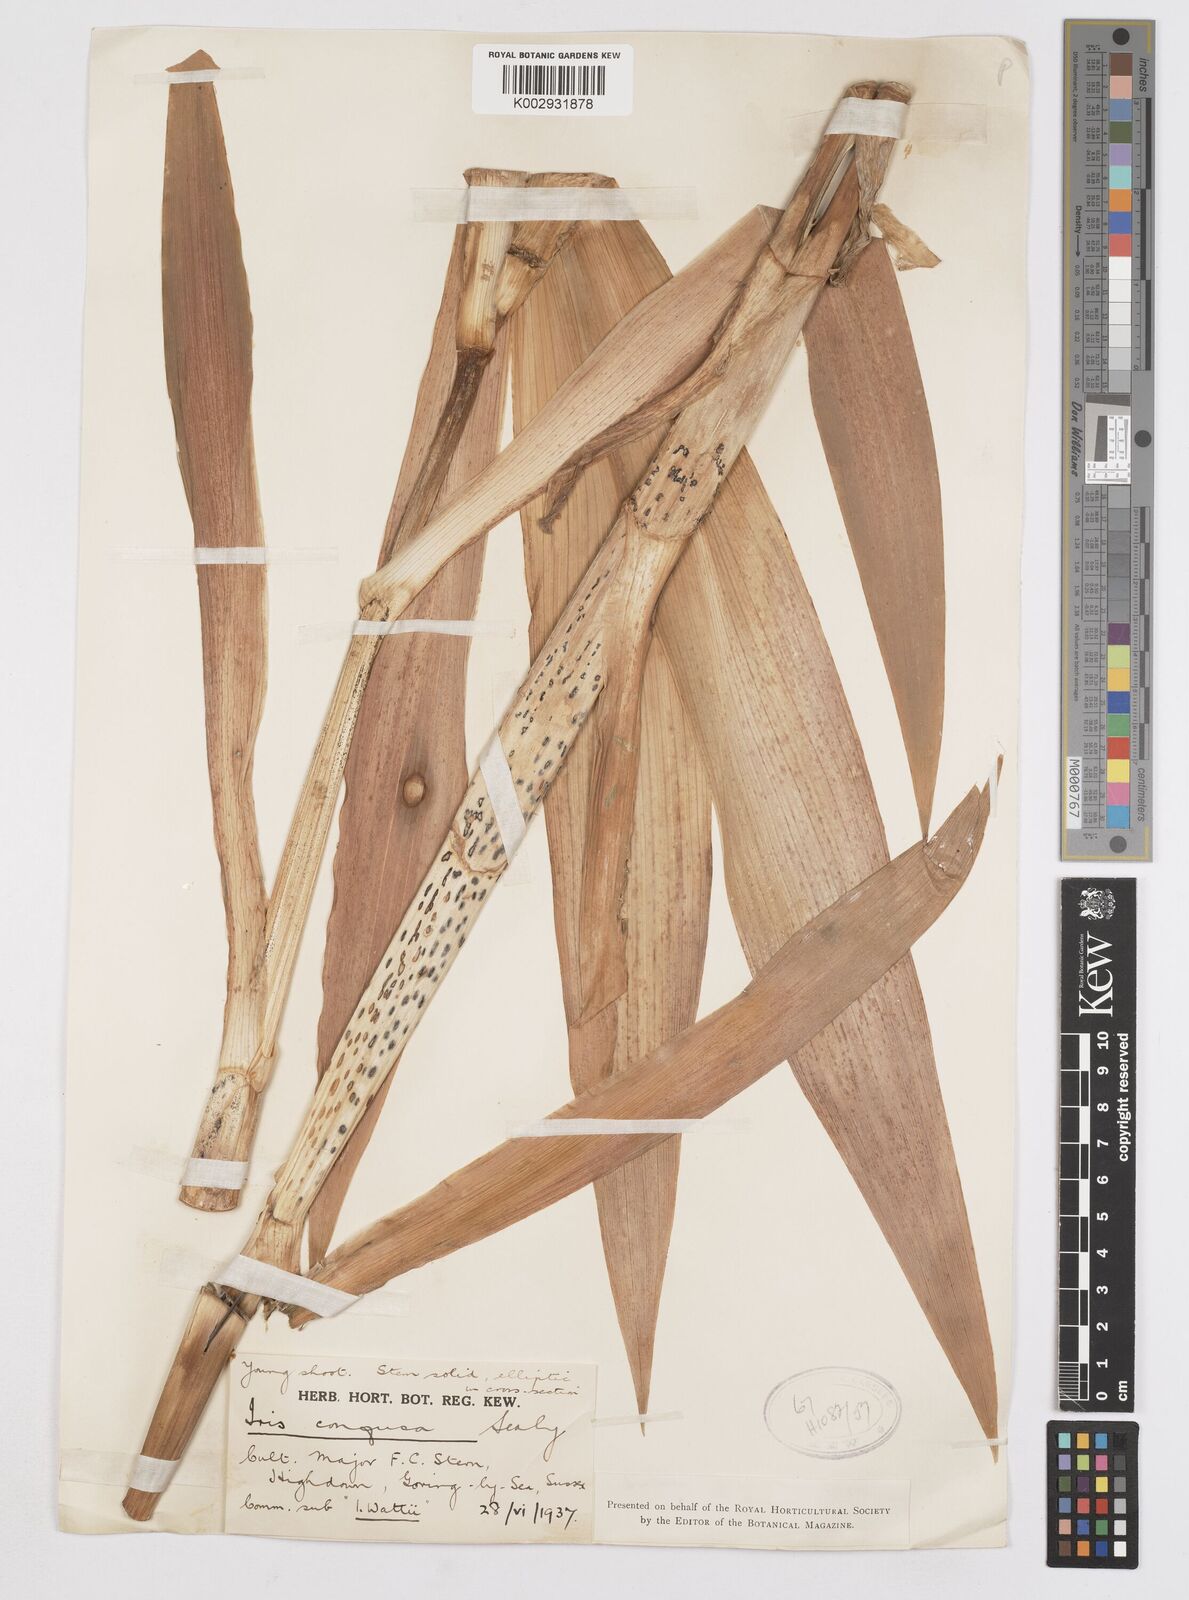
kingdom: Plantae
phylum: Tracheophyta
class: Liliopsida
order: Asparagales
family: Iridaceae
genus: Iris
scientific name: Iris confusa
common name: Flat bamboo-orchid
